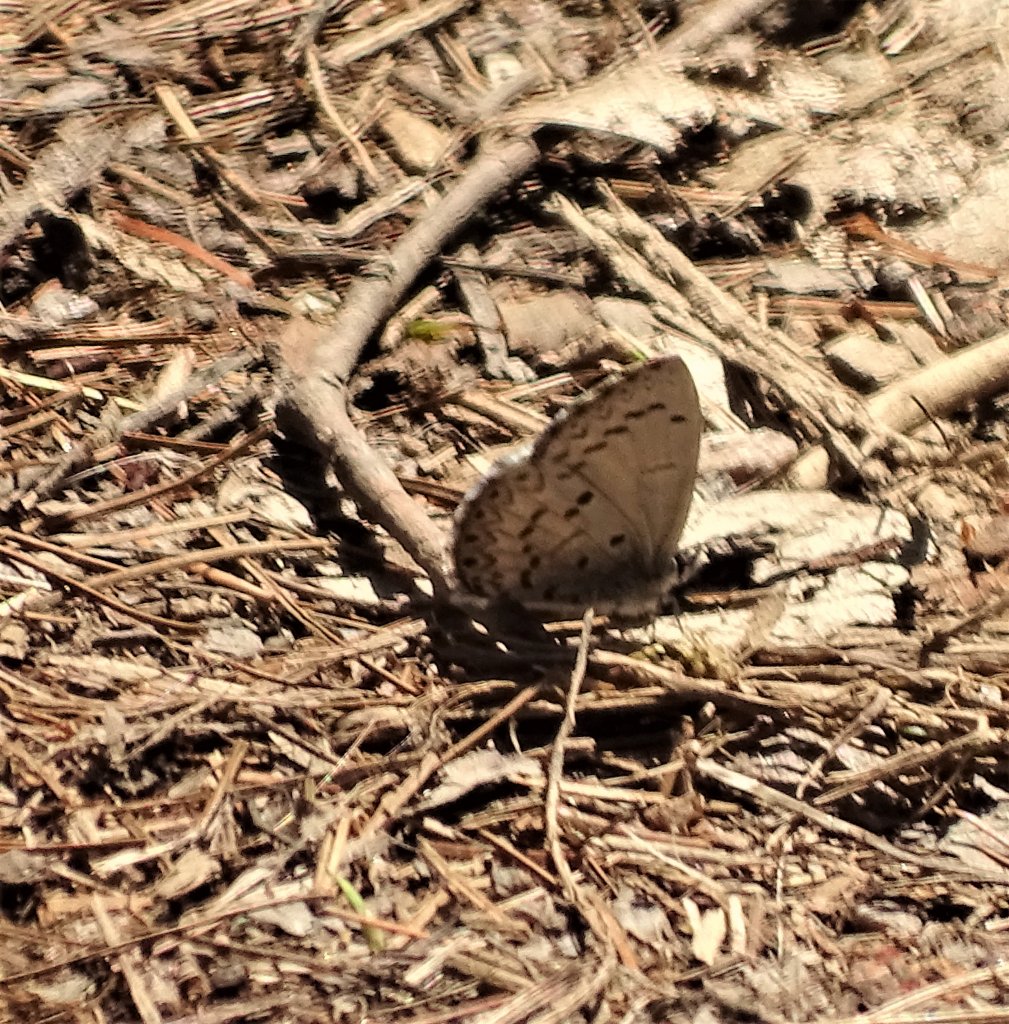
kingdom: Animalia
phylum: Arthropoda
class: Insecta
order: Lepidoptera
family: Lycaenidae
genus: Celastrina
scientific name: Celastrina lucia
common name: Northern Spring Azure
